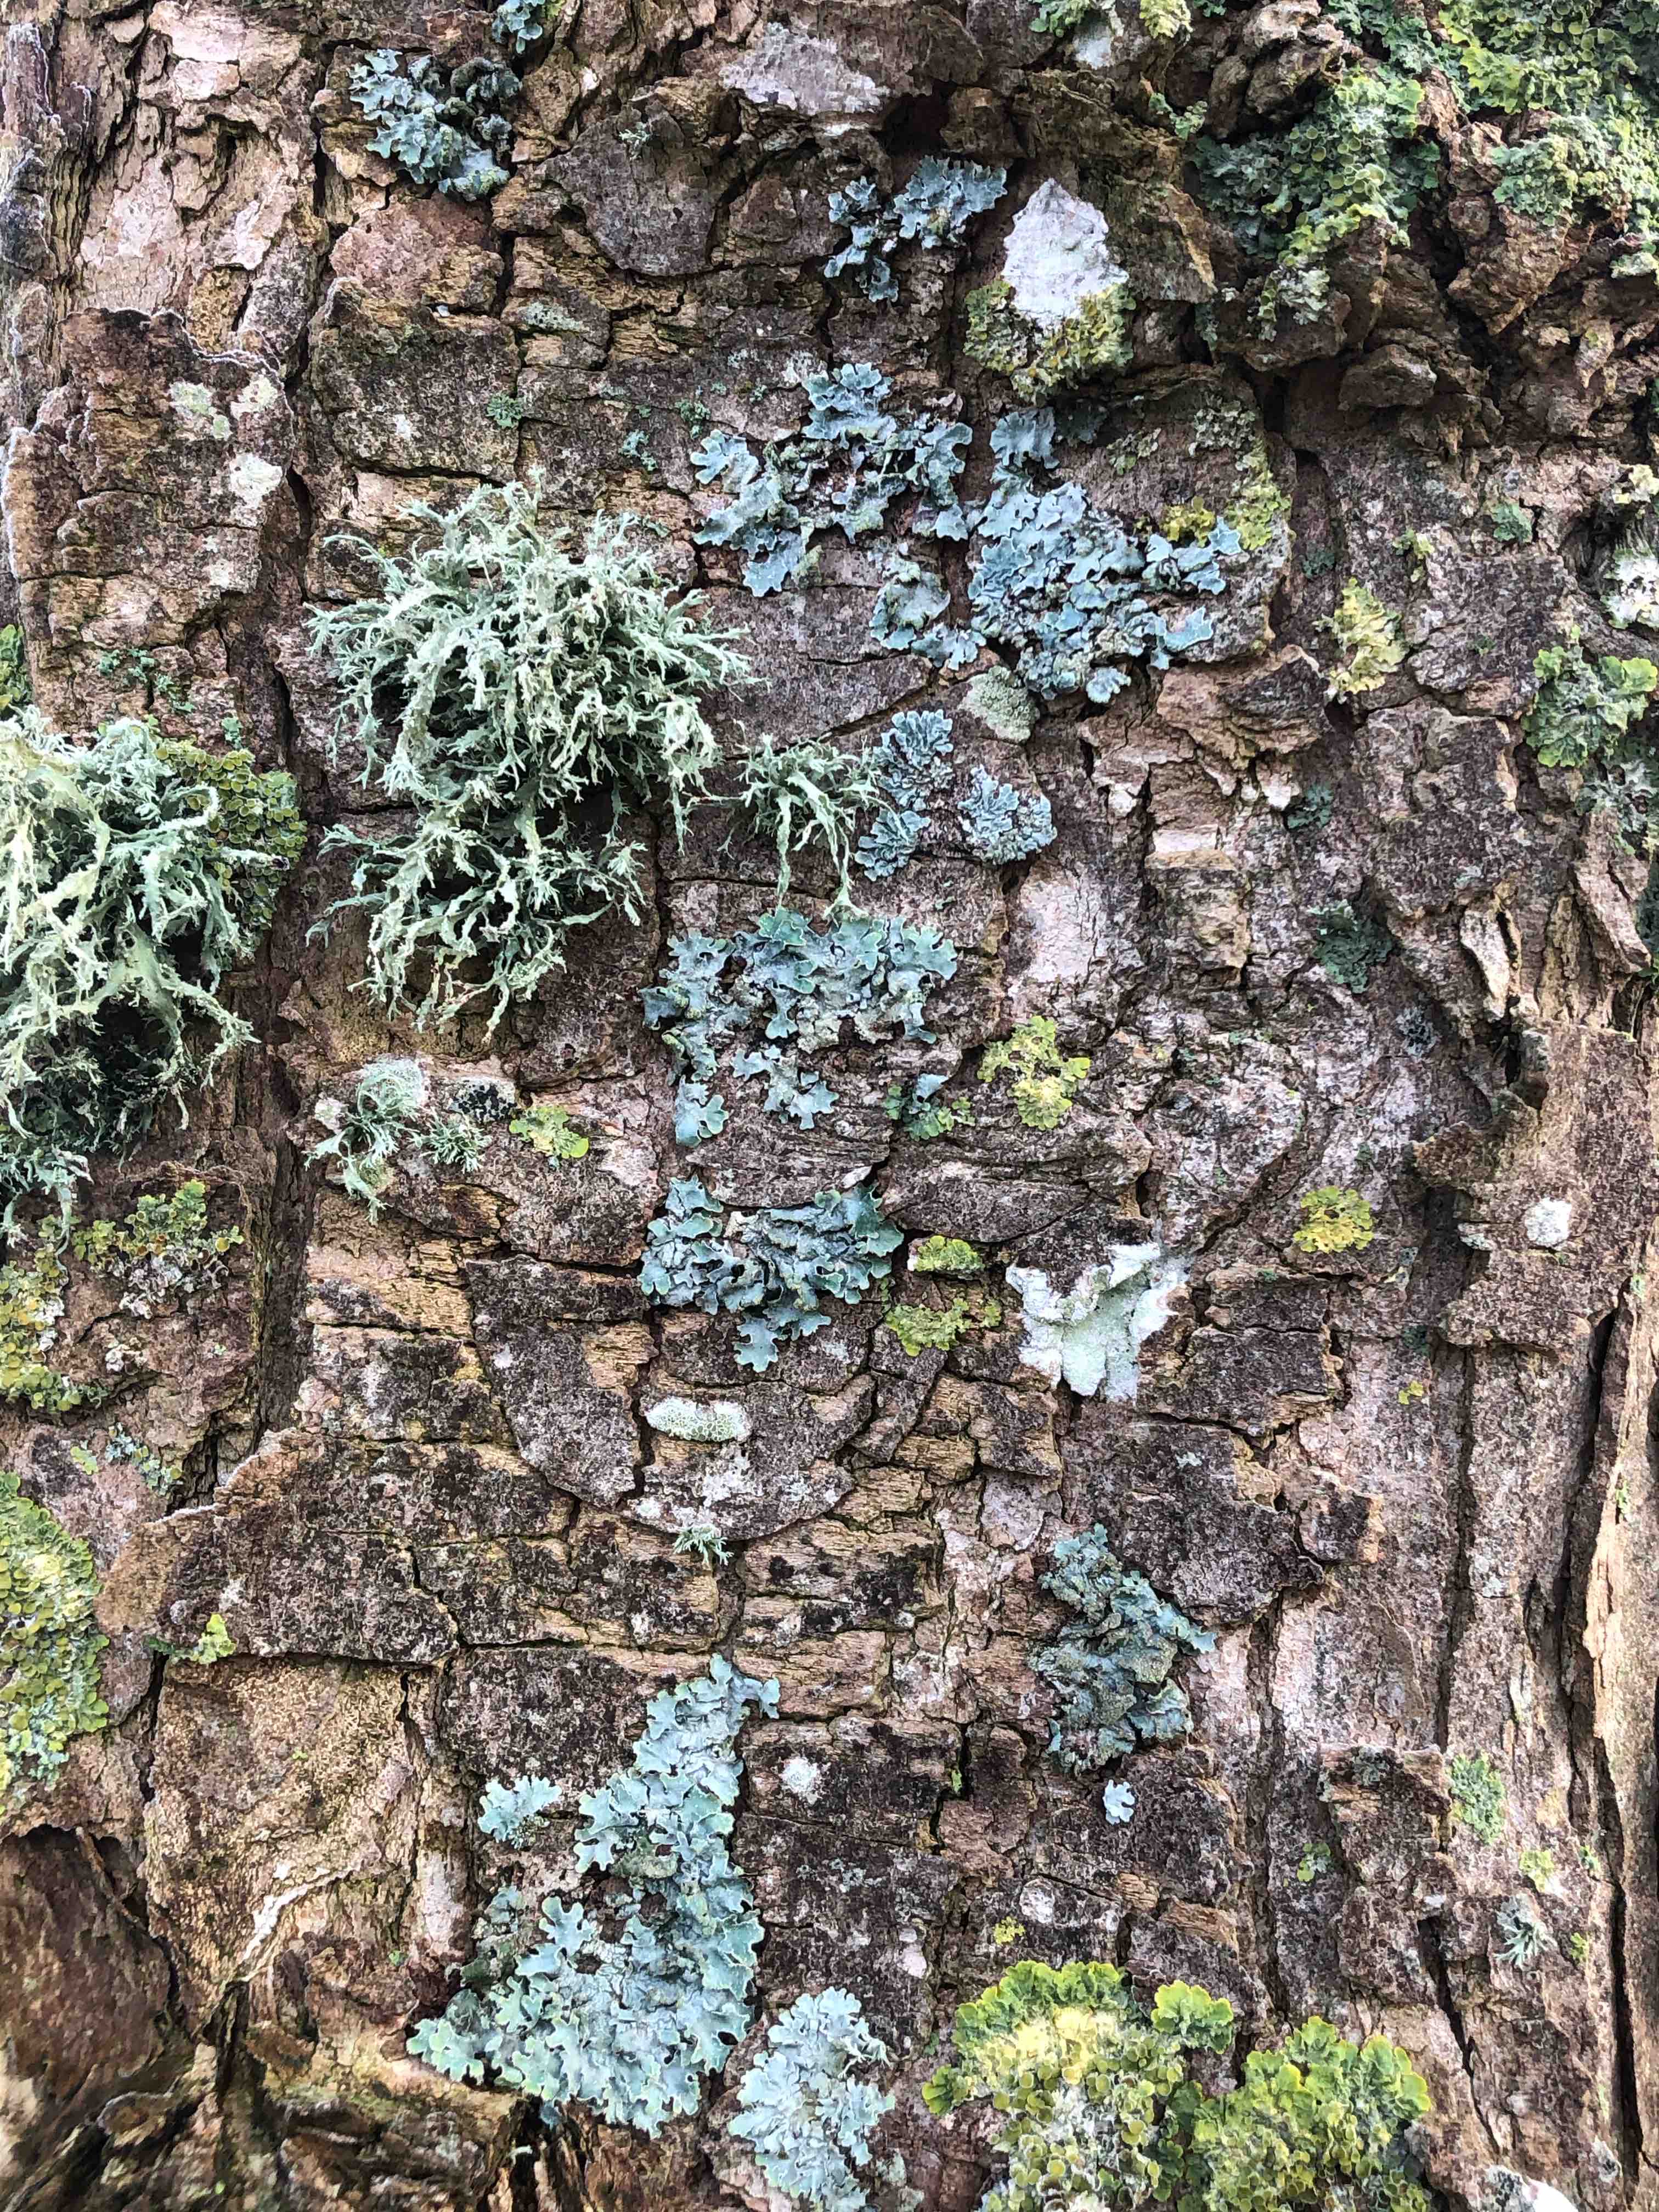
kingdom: Fungi
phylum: Ascomycota
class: Lecanoromycetes
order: Lecanorales
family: Parmeliaceae
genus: Parmelia
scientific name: Parmelia sulcata
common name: rynket skållav
